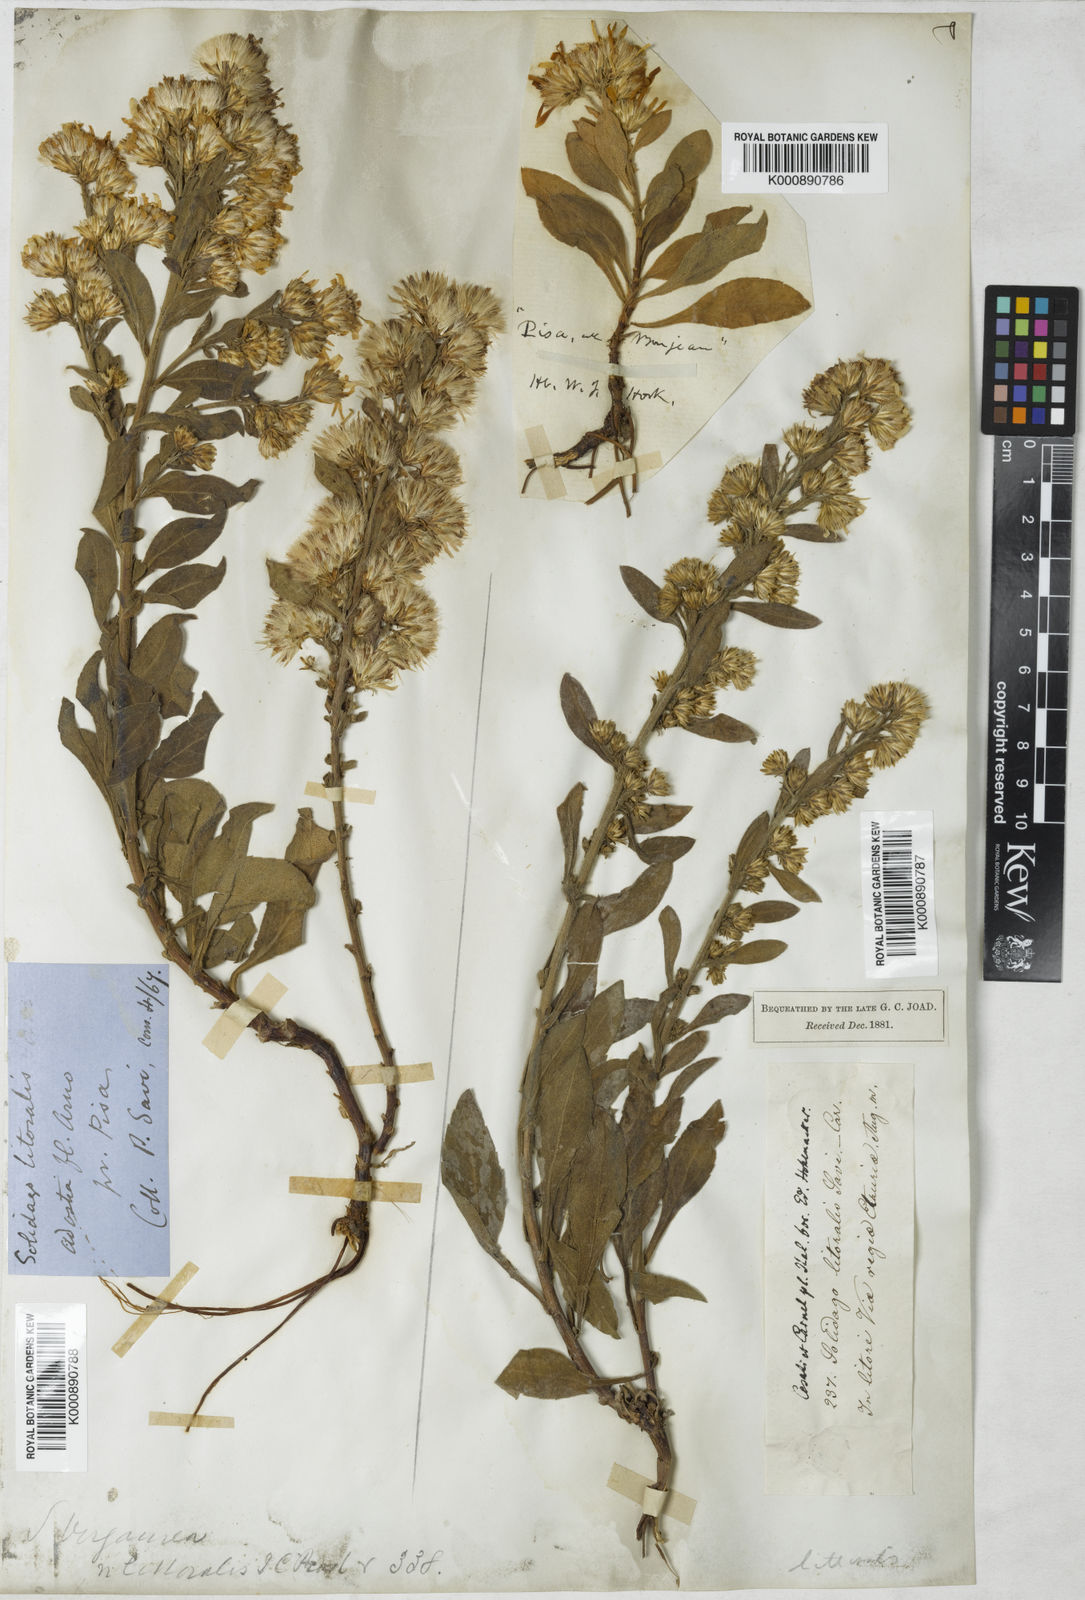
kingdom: Plantae
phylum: Tracheophyta
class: Magnoliopsida
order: Asterales
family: Asteraceae
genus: Solidago
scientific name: Solidago litoralis
